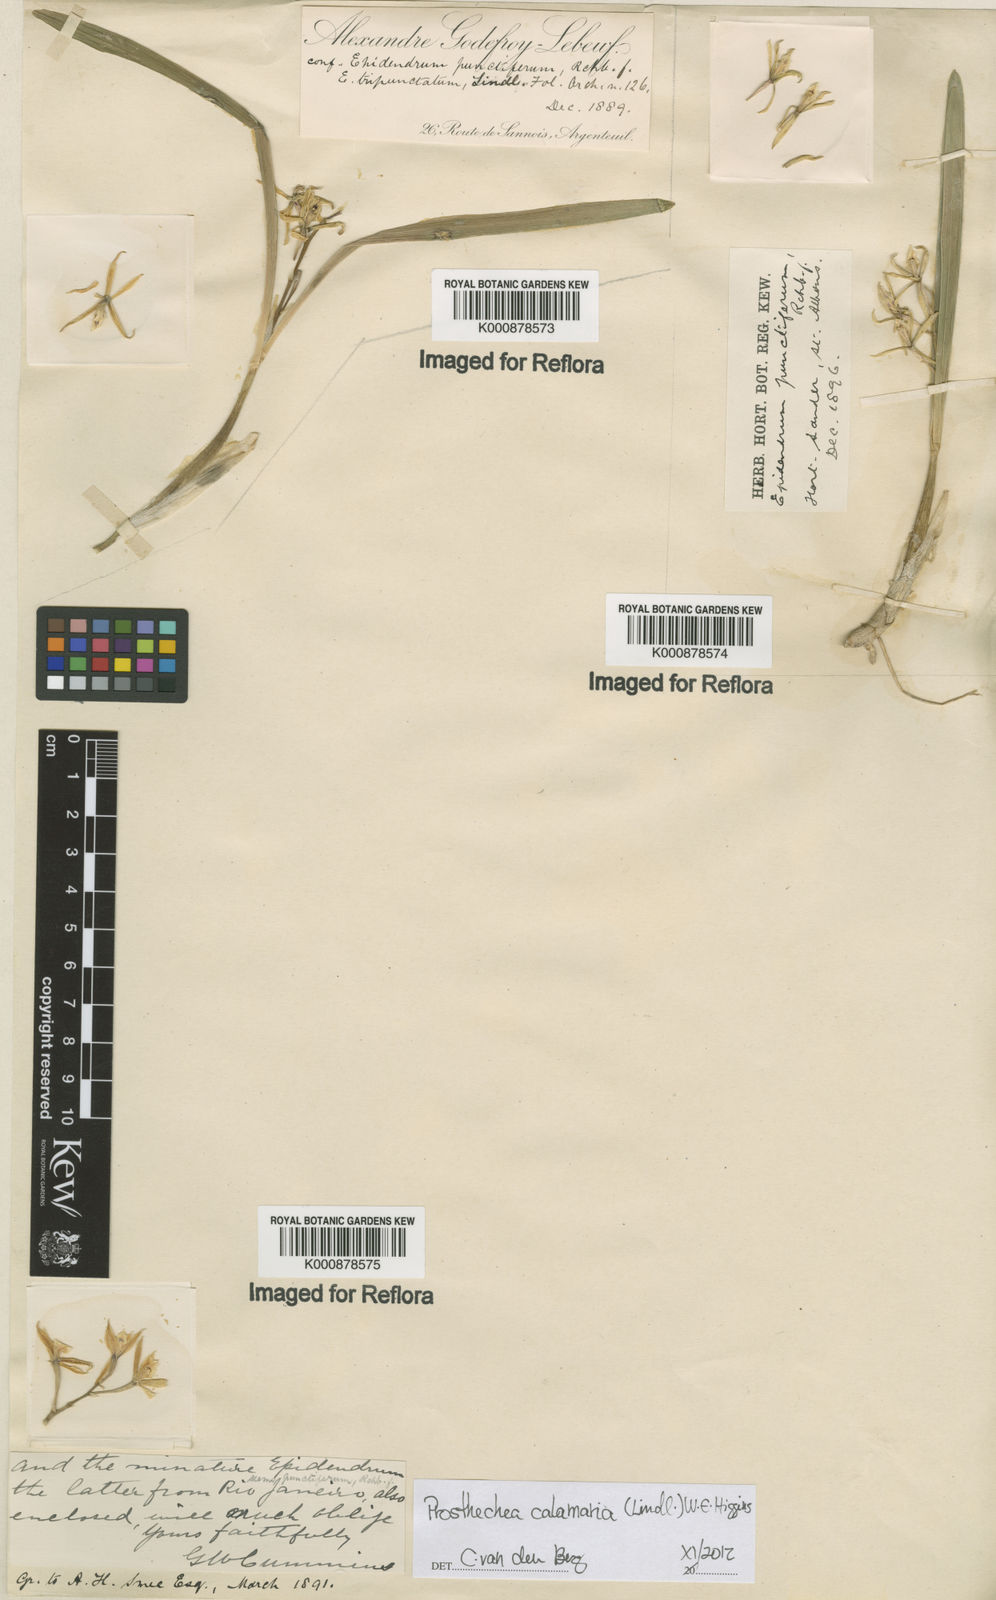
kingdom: Plantae
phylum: Tracheophyta
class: Liliopsida
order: Asparagales
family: Orchidaceae
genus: Prosthechea
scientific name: Prosthechea calamaria
